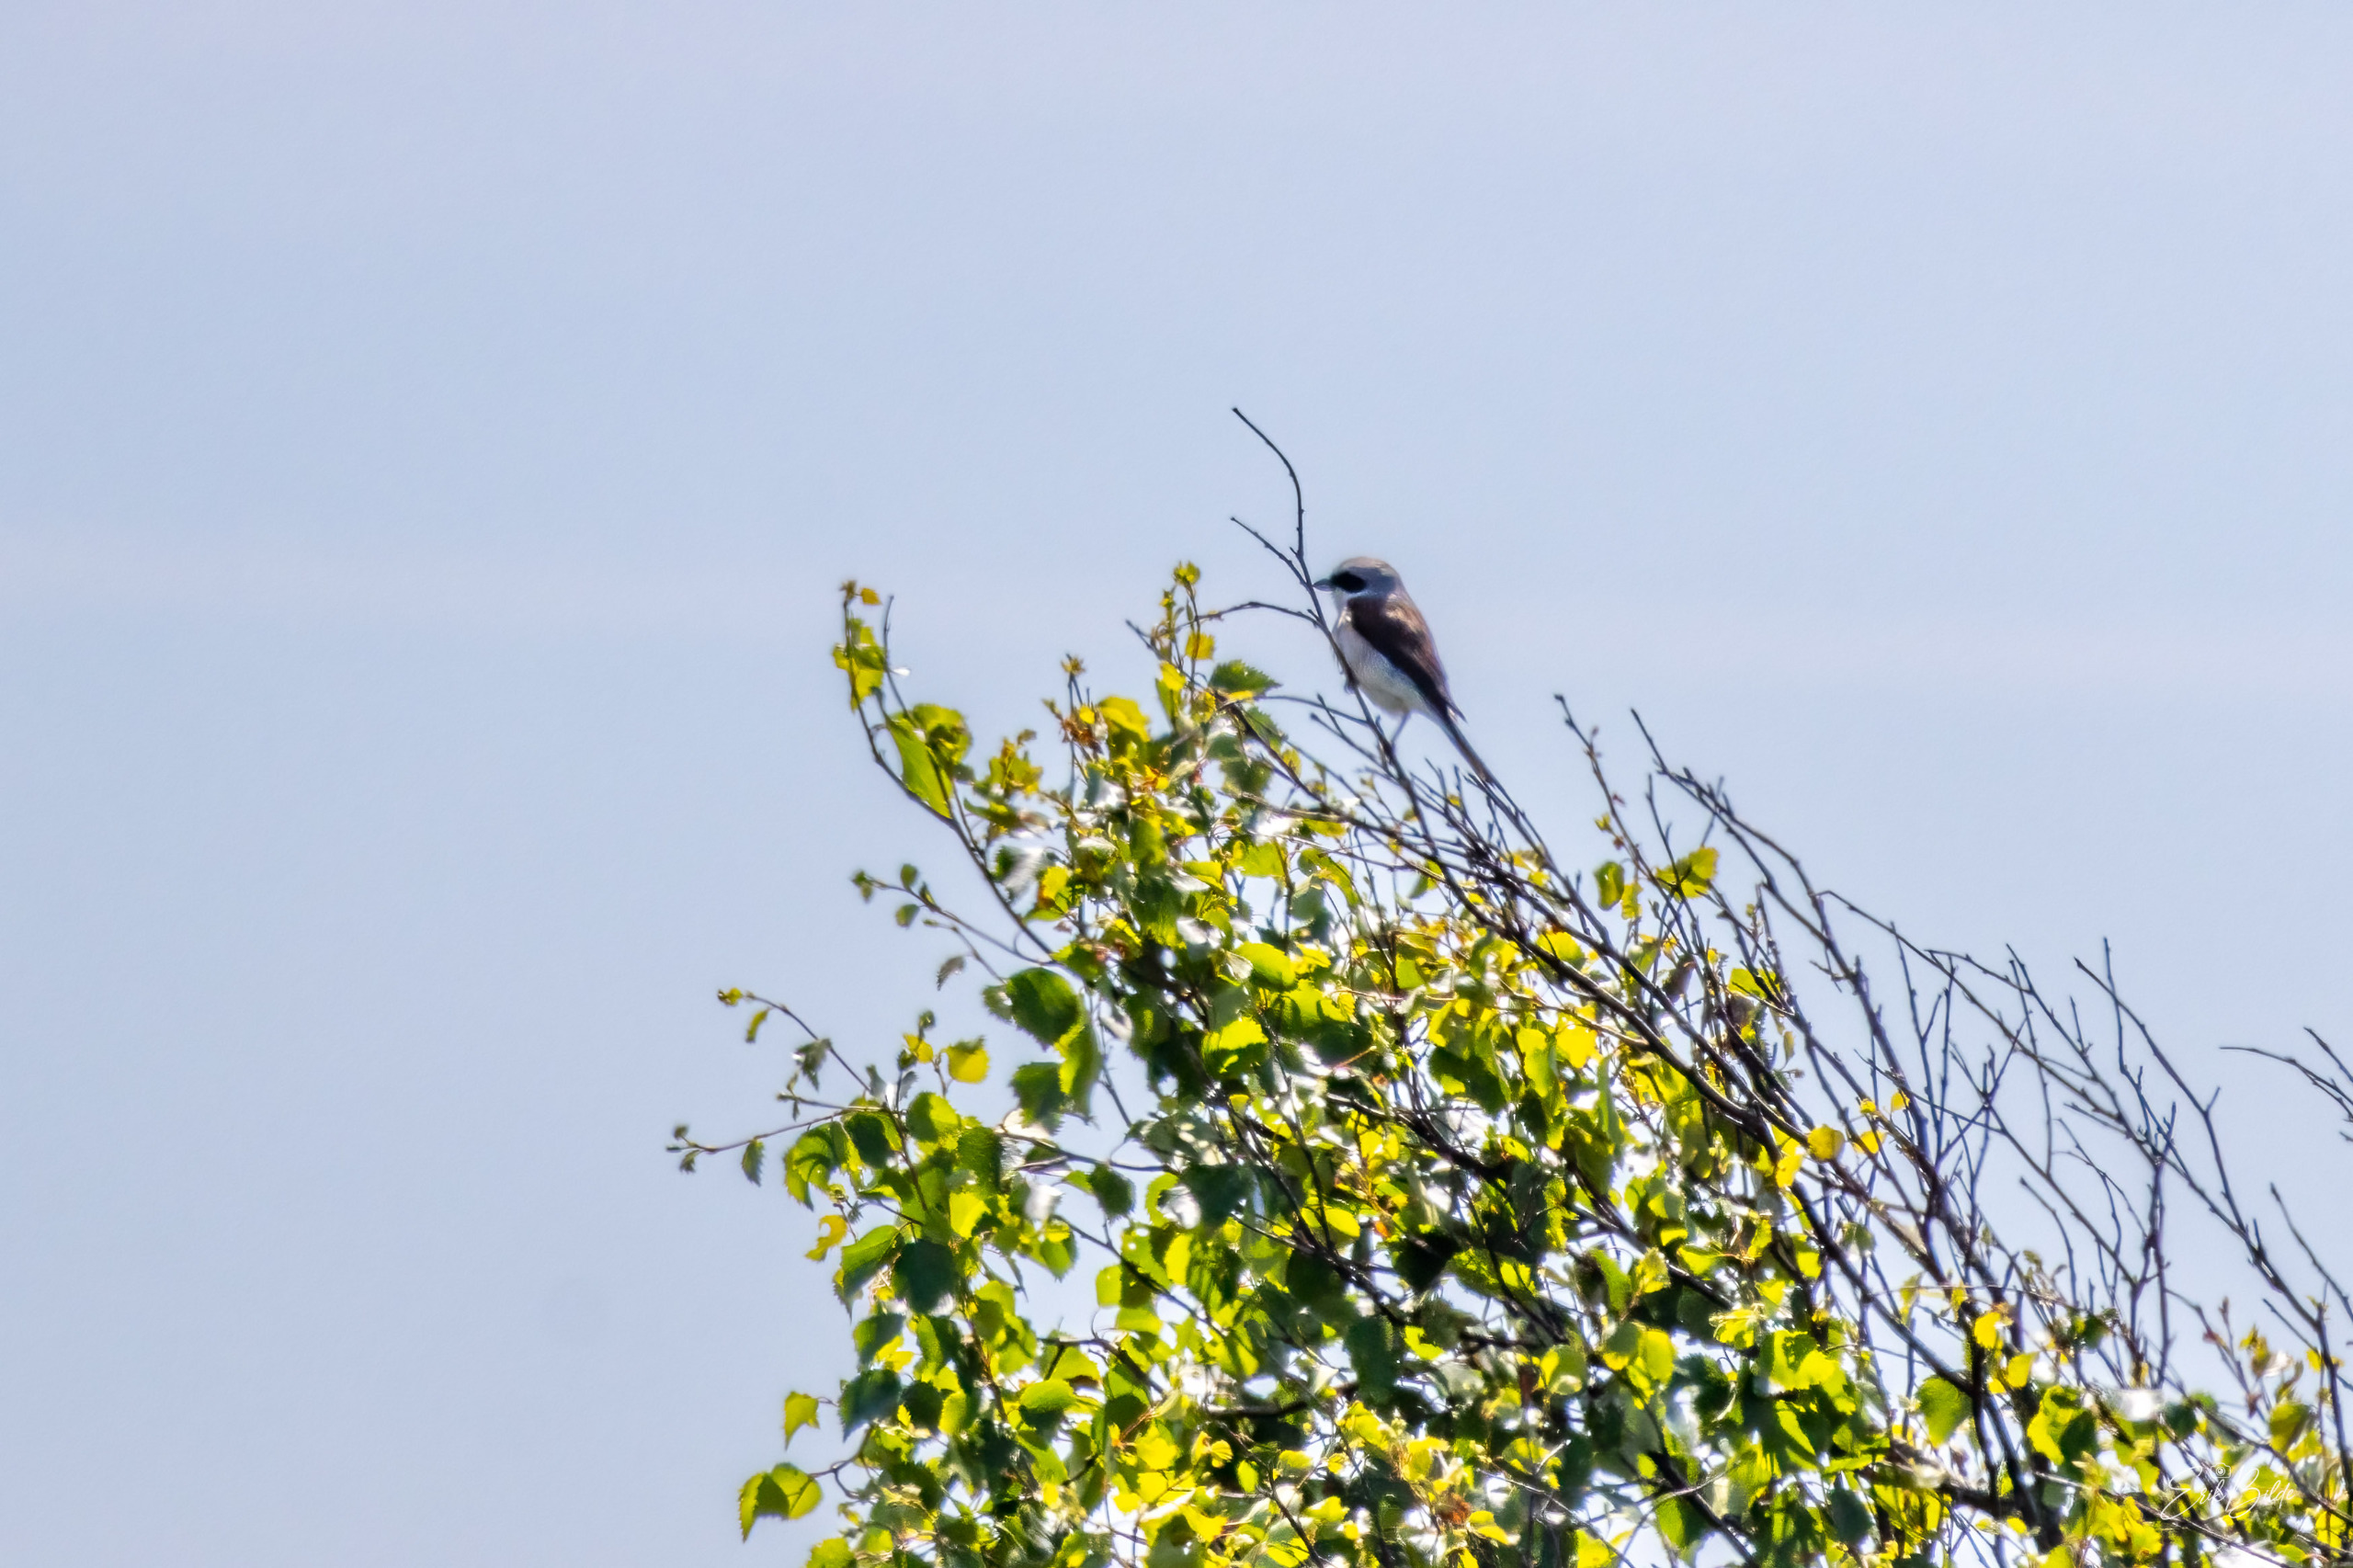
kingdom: Animalia
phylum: Chordata
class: Aves
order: Passeriformes
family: Laniidae
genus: Lanius
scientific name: Lanius collurio
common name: Rødrygget tornskade
